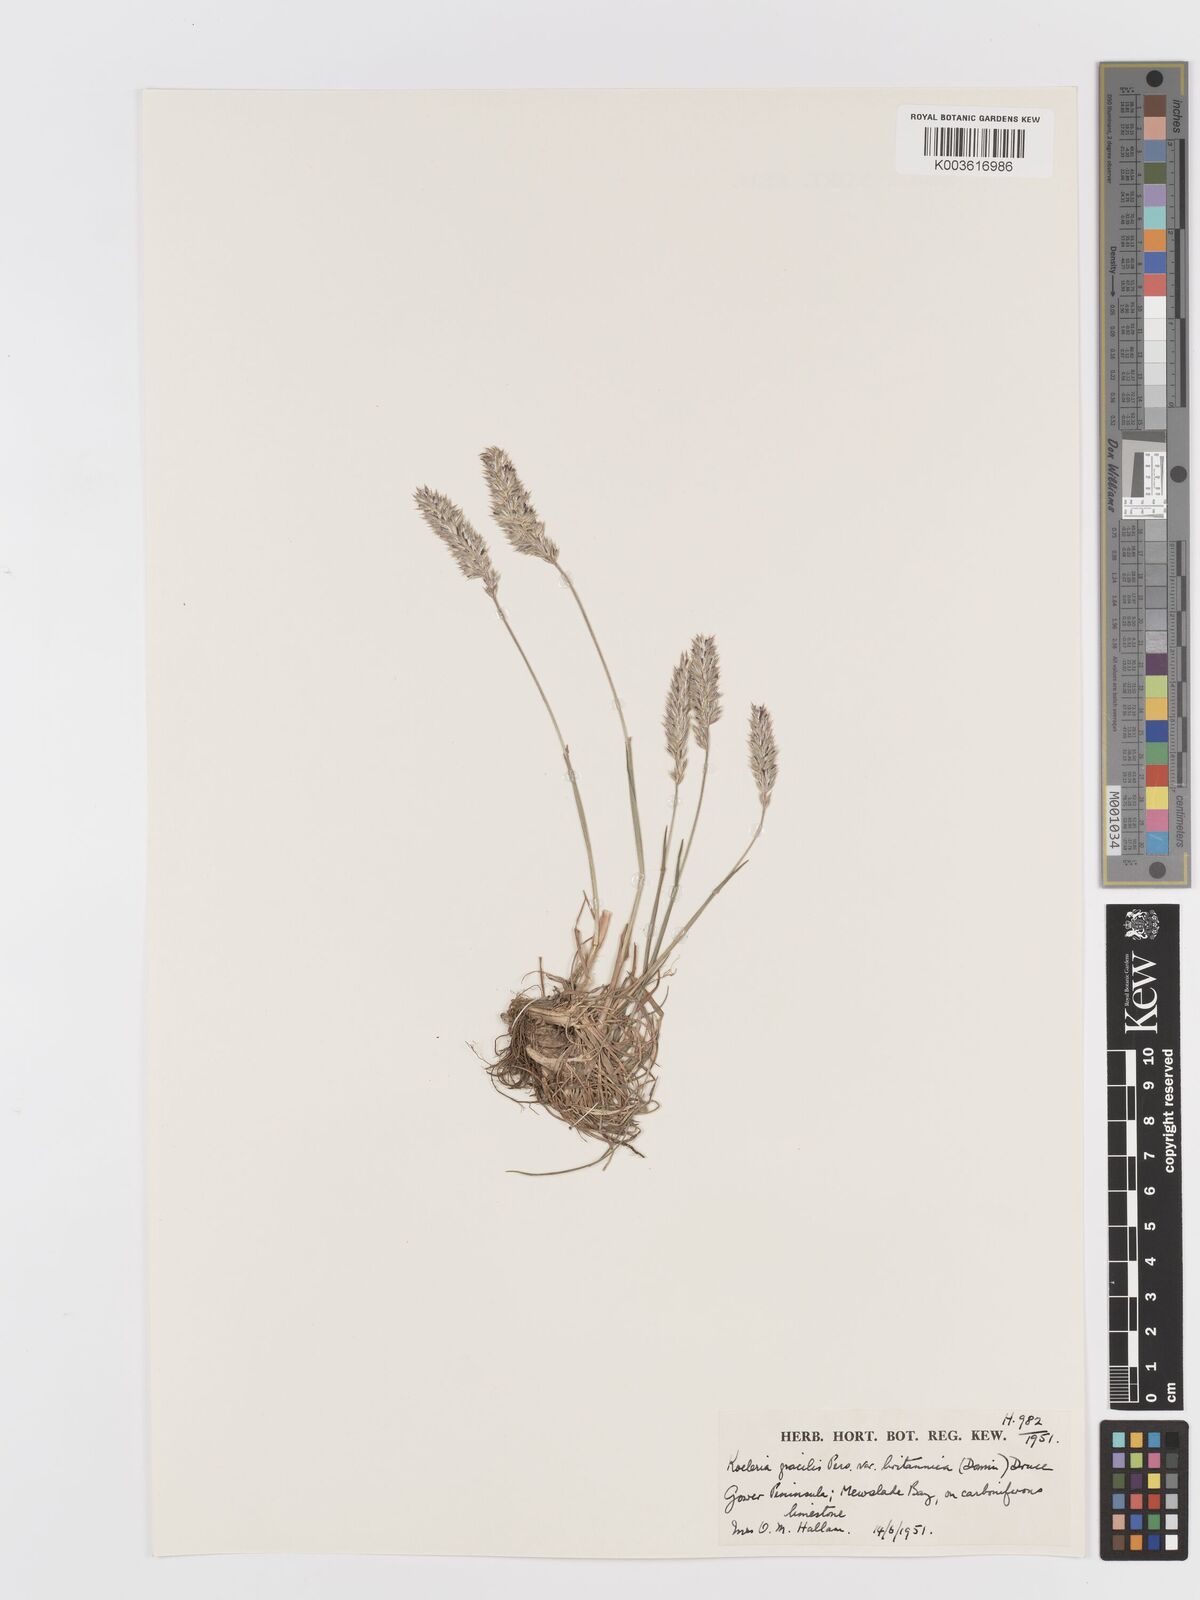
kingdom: Plantae
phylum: Tracheophyta
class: Liliopsida
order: Poales
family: Poaceae
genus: Koeleria
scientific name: Koeleria macrantha
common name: Crested hair-grass
